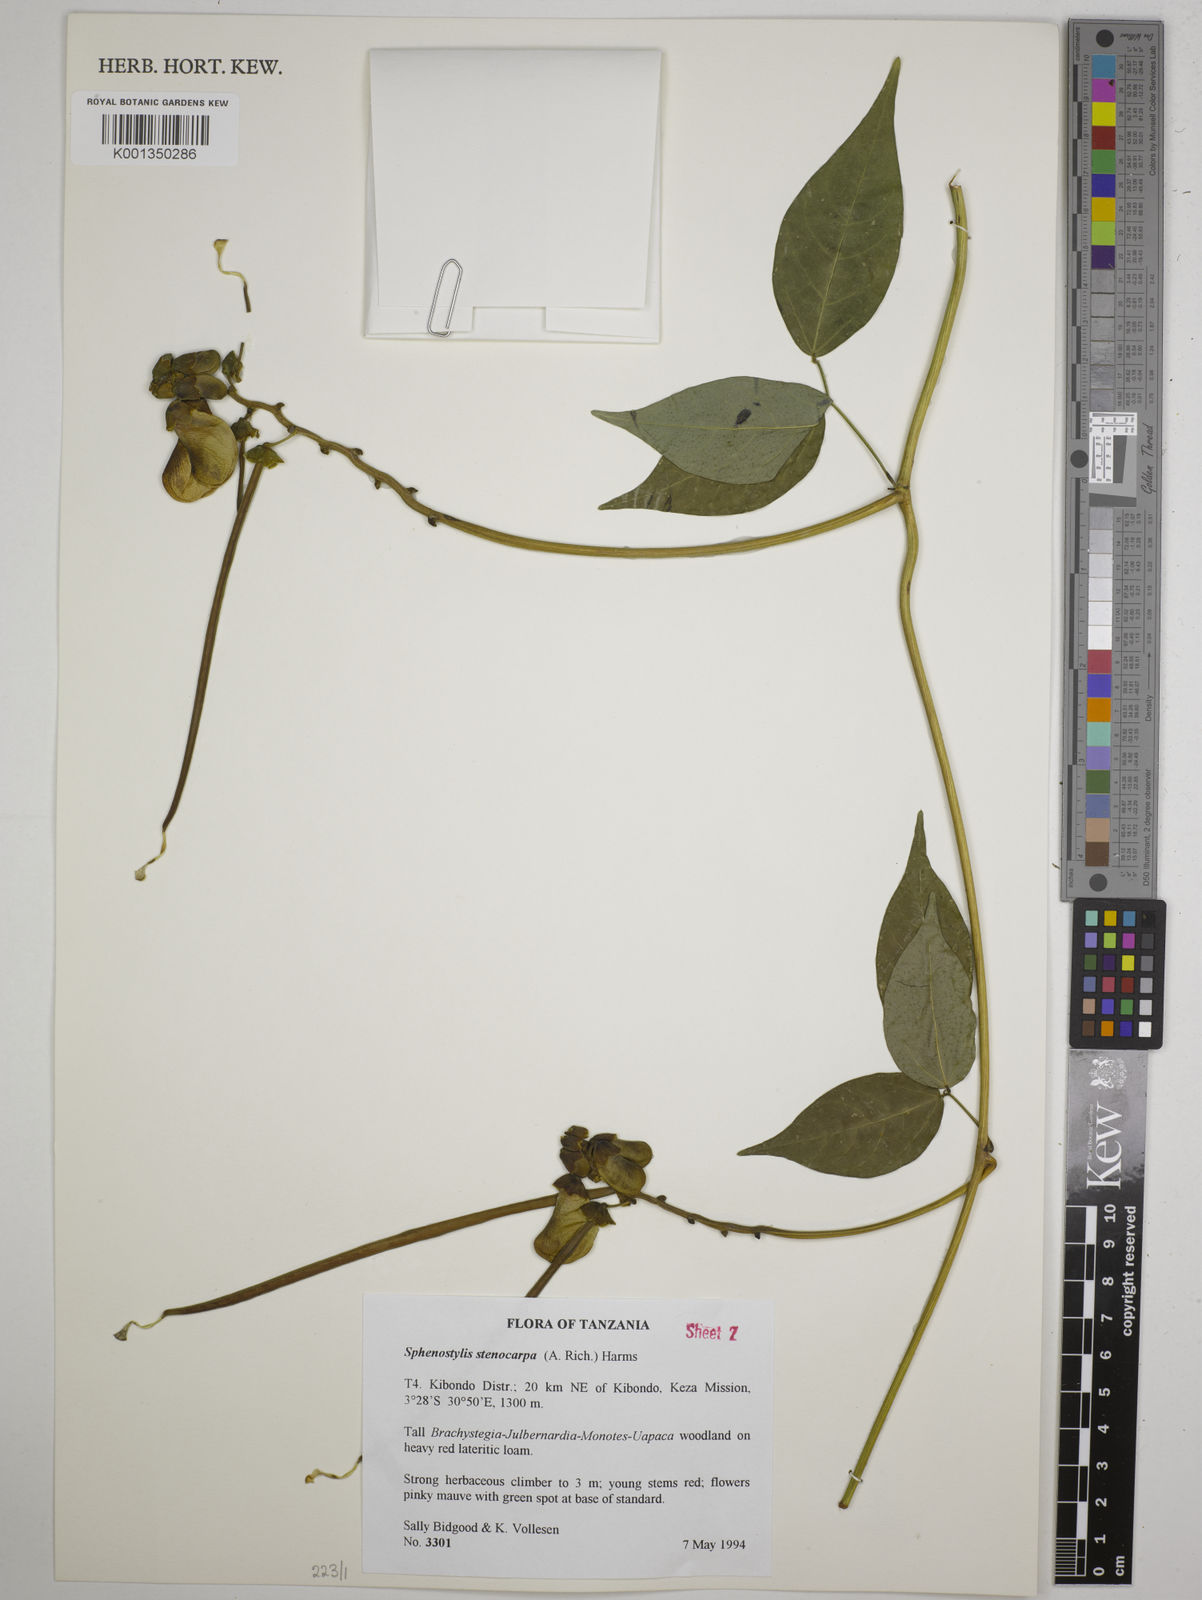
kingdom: Plantae
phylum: Tracheophyta
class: Magnoliopsida
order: Fabales
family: Fabaceae
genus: Sphenostylis
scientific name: Sphenostylis stenocarpa
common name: Yam-pea
